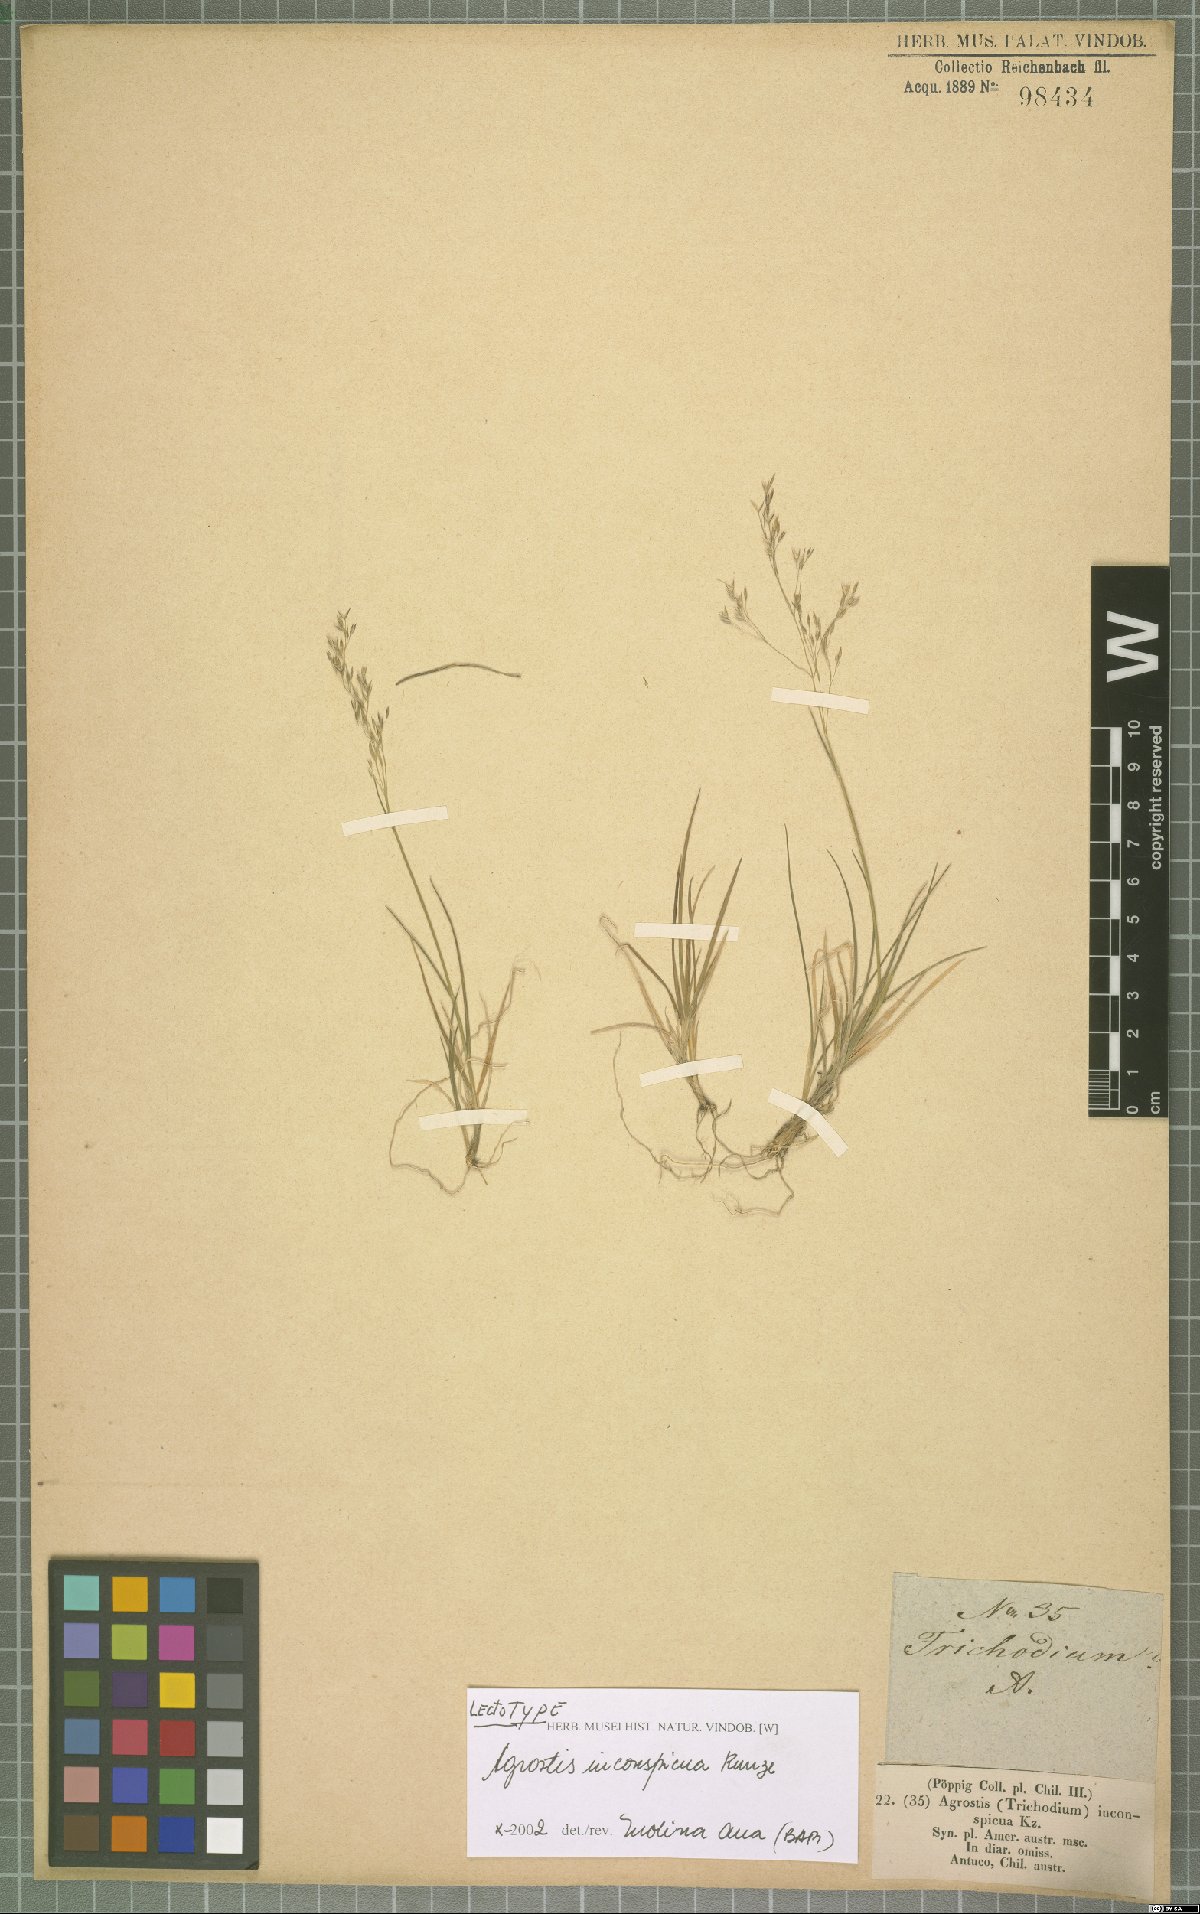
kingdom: Plantae
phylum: Tracheophyta
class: Liliopsida
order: Poales
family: Poaceae
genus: Agrostis
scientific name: Agrostis inconspicua
